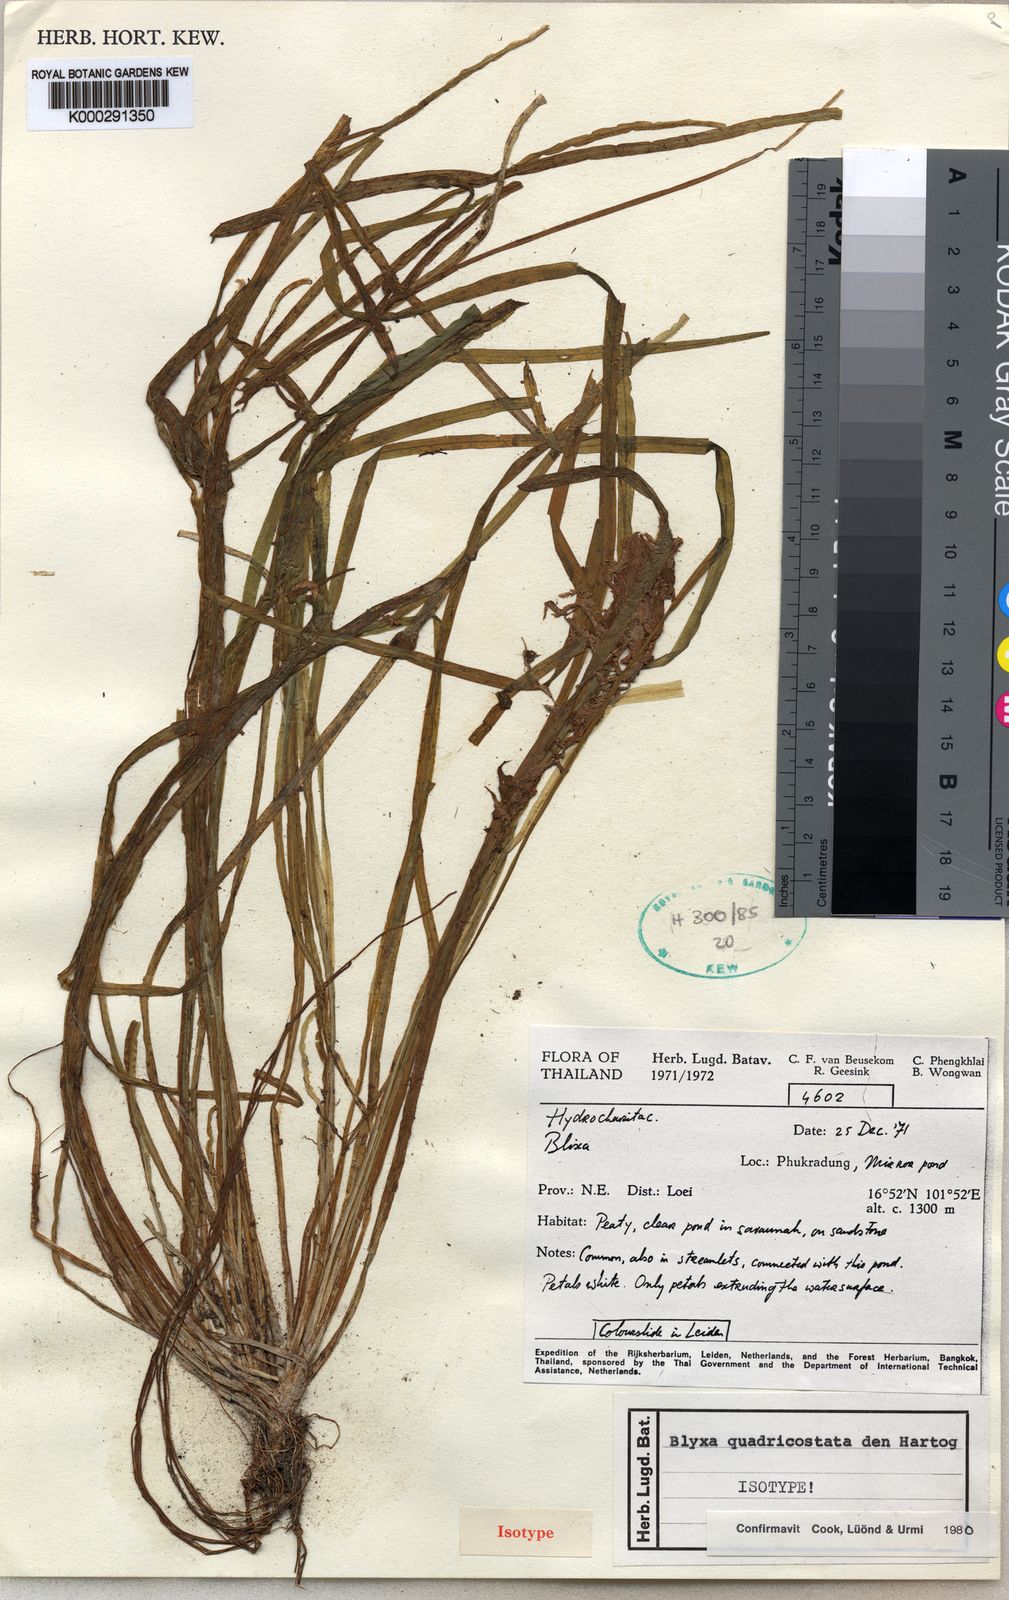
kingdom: Plantae
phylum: Tracheophyta
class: Liliopsida
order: Alismatales
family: Hydrocharitaceae
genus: Blyxa
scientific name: Blyxa quadricostata
